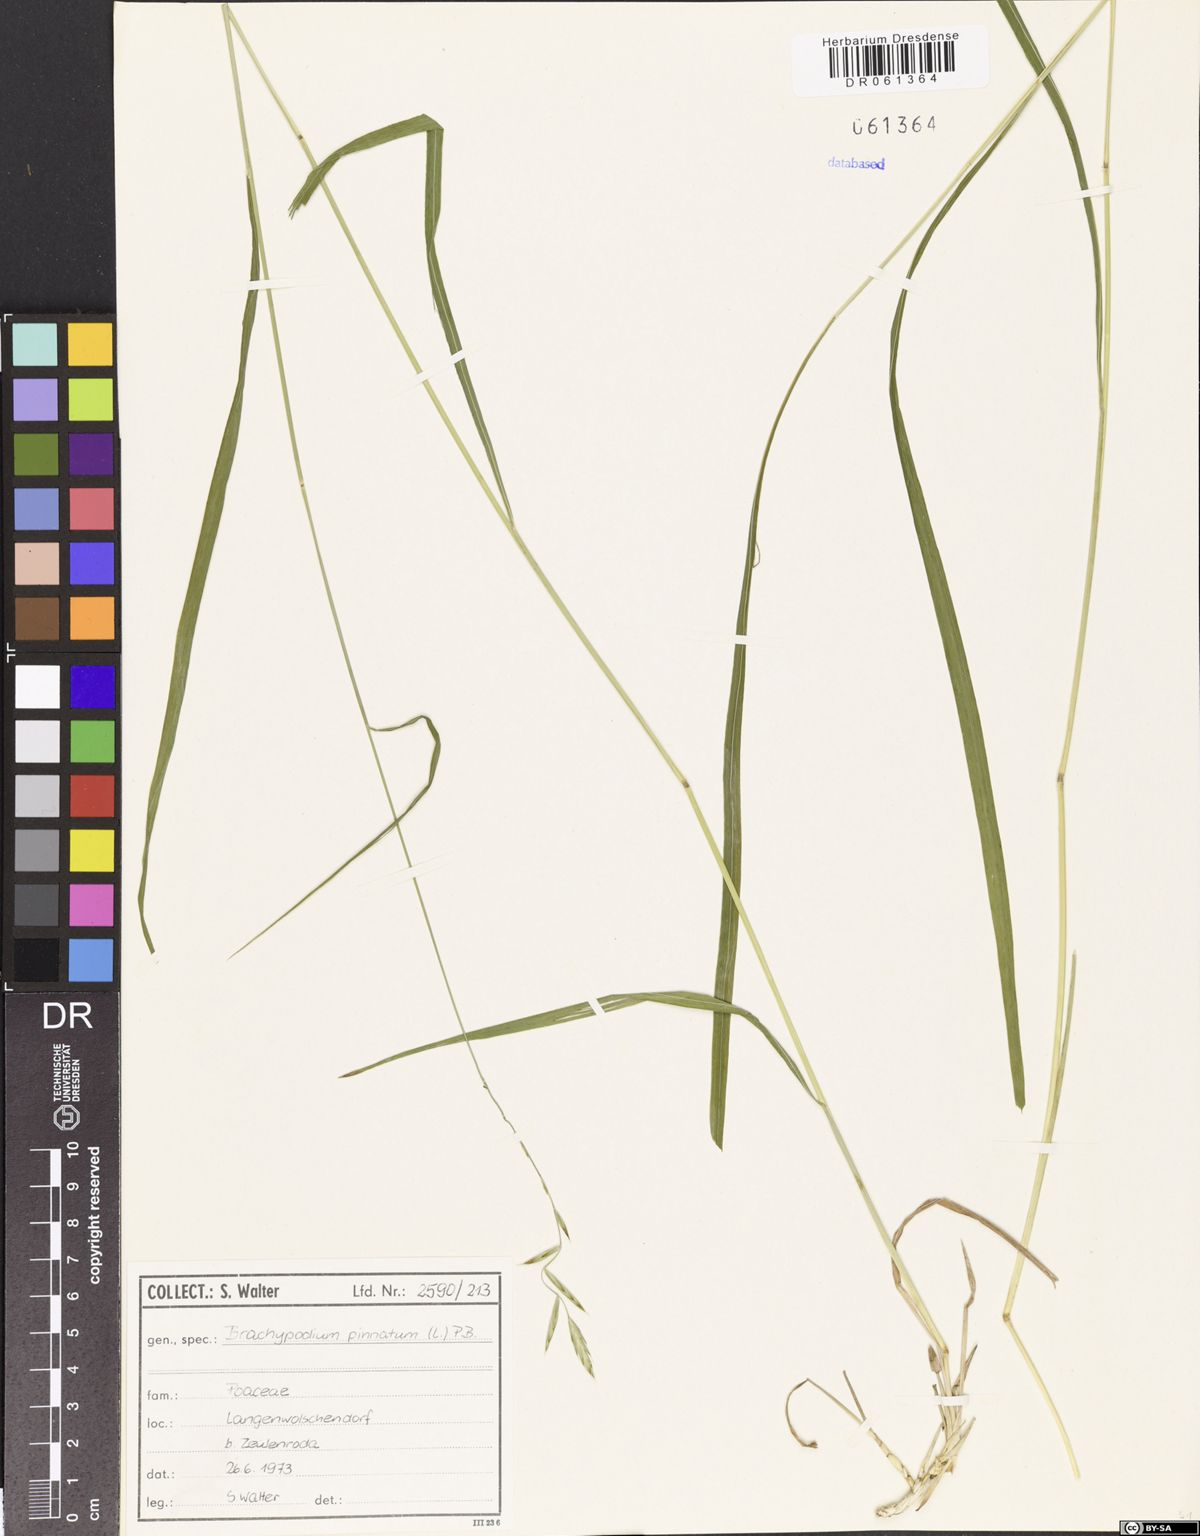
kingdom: Plantae
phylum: Tracheophyta
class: Liliopsida
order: Poales
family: Poaceae
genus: Brachypodium
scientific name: Brachypodium pinnatum
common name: Tor grass
